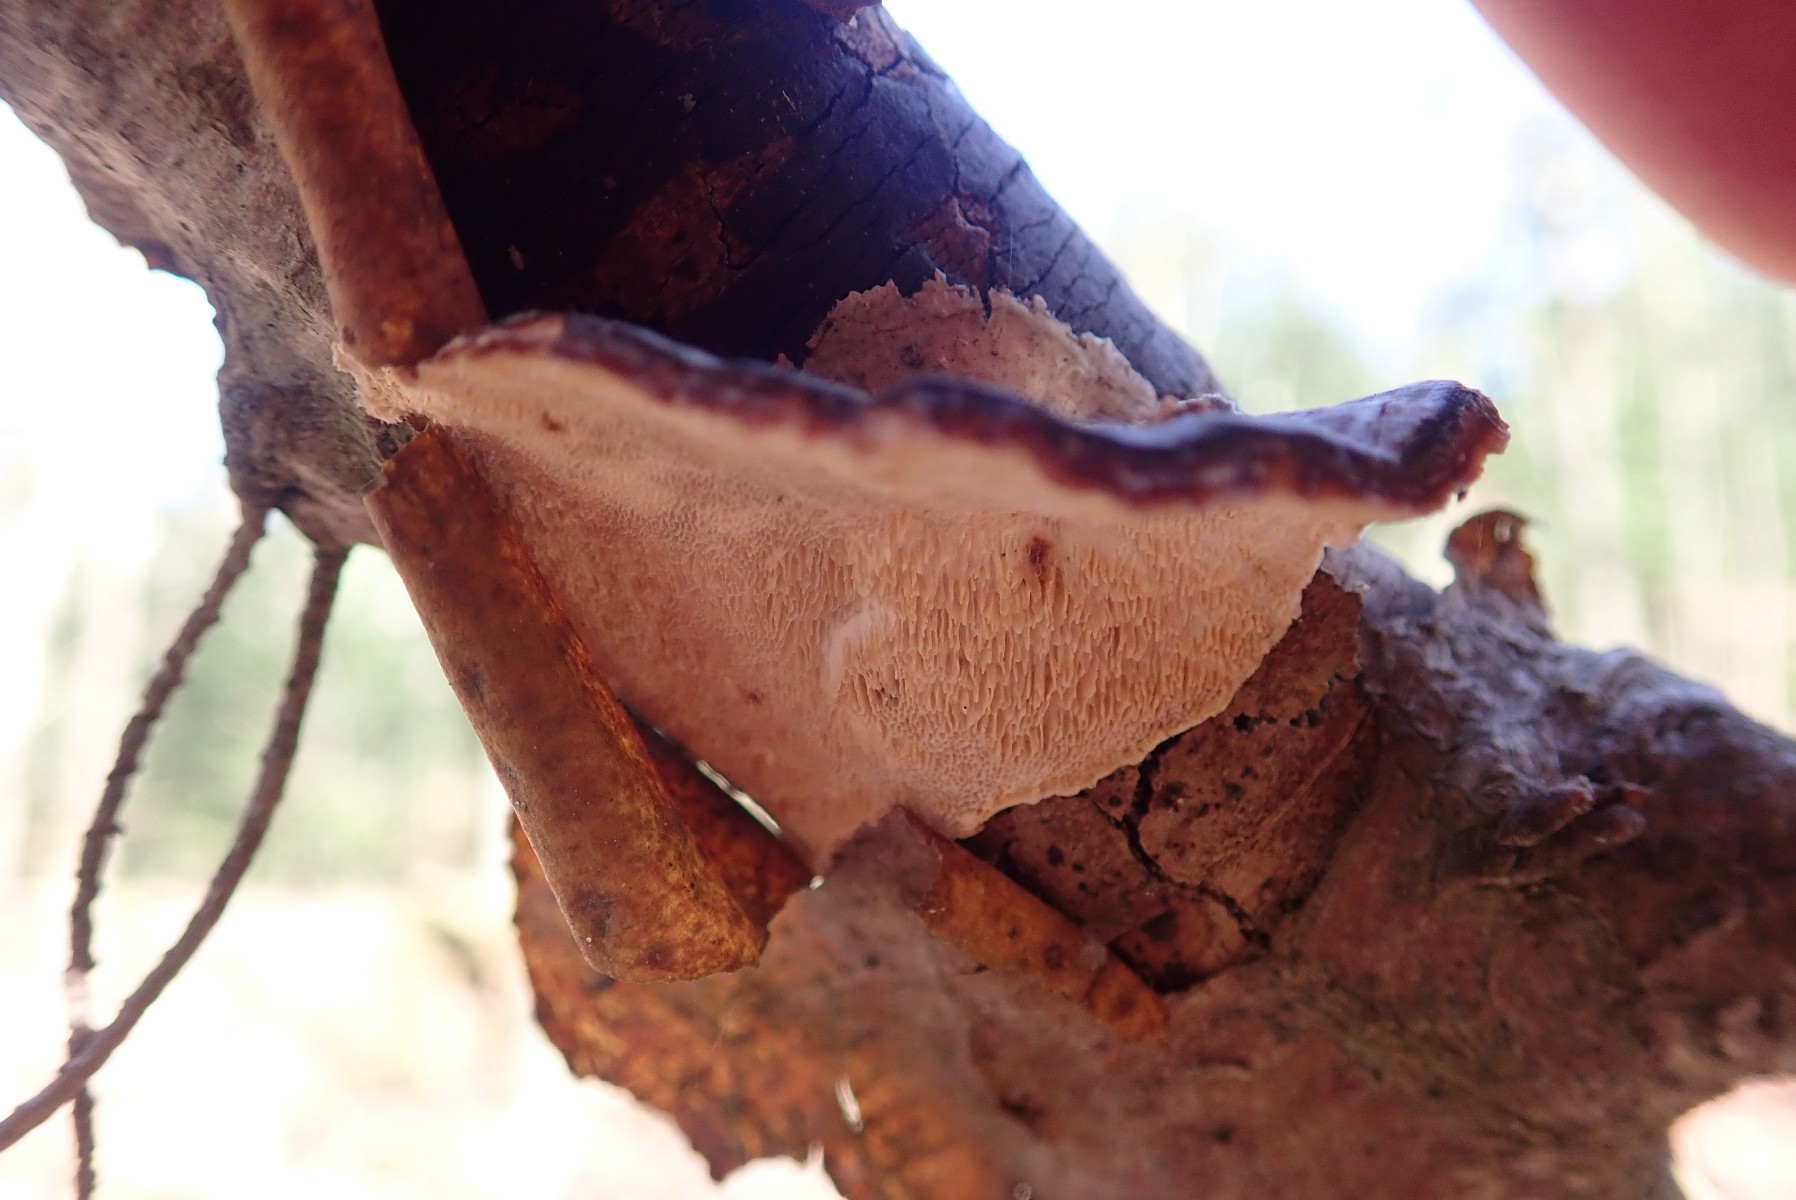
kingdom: Fungi
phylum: Basidiomycota
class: Agaricomycetes
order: Polyporales
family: Polyporaceae
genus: Trametes
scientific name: Trametes versicolor
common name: broget læderporesvamp
